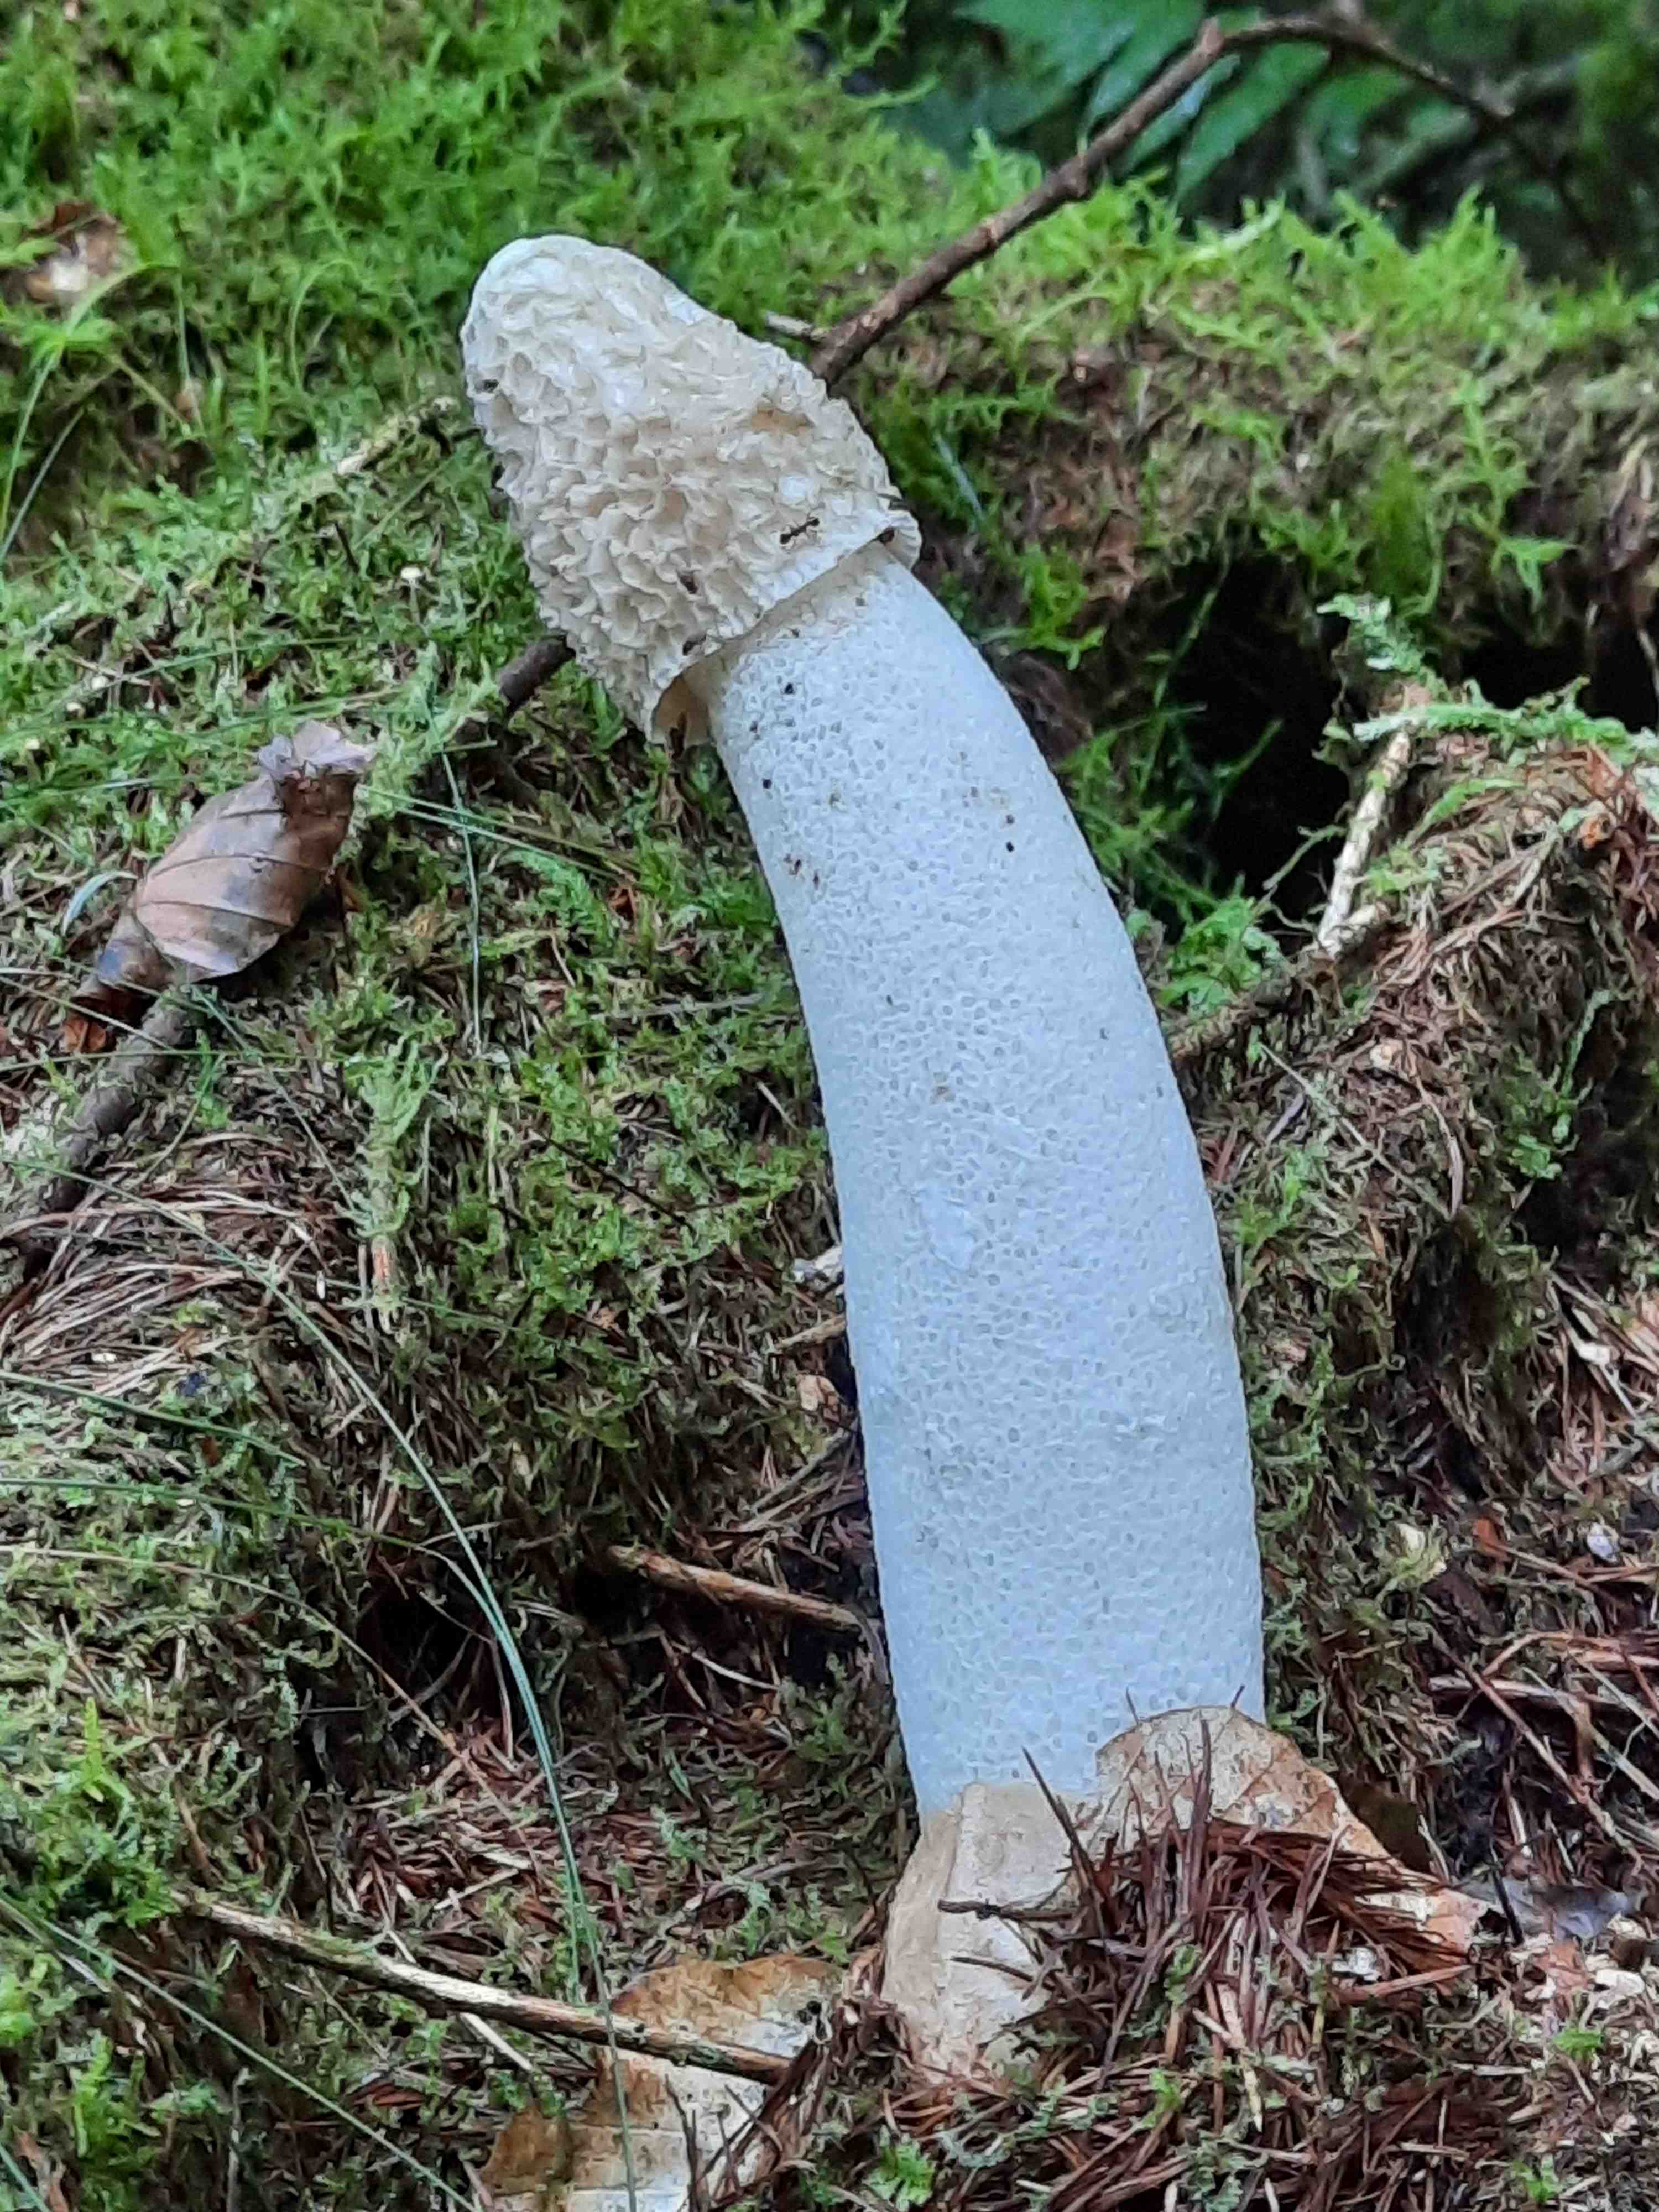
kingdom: Fungi
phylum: Basidiomycota
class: Agaricomycetes
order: Phallales
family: Phallaceae
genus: Phallus
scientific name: Phallus impudicus
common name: almindelig stinksvamp
